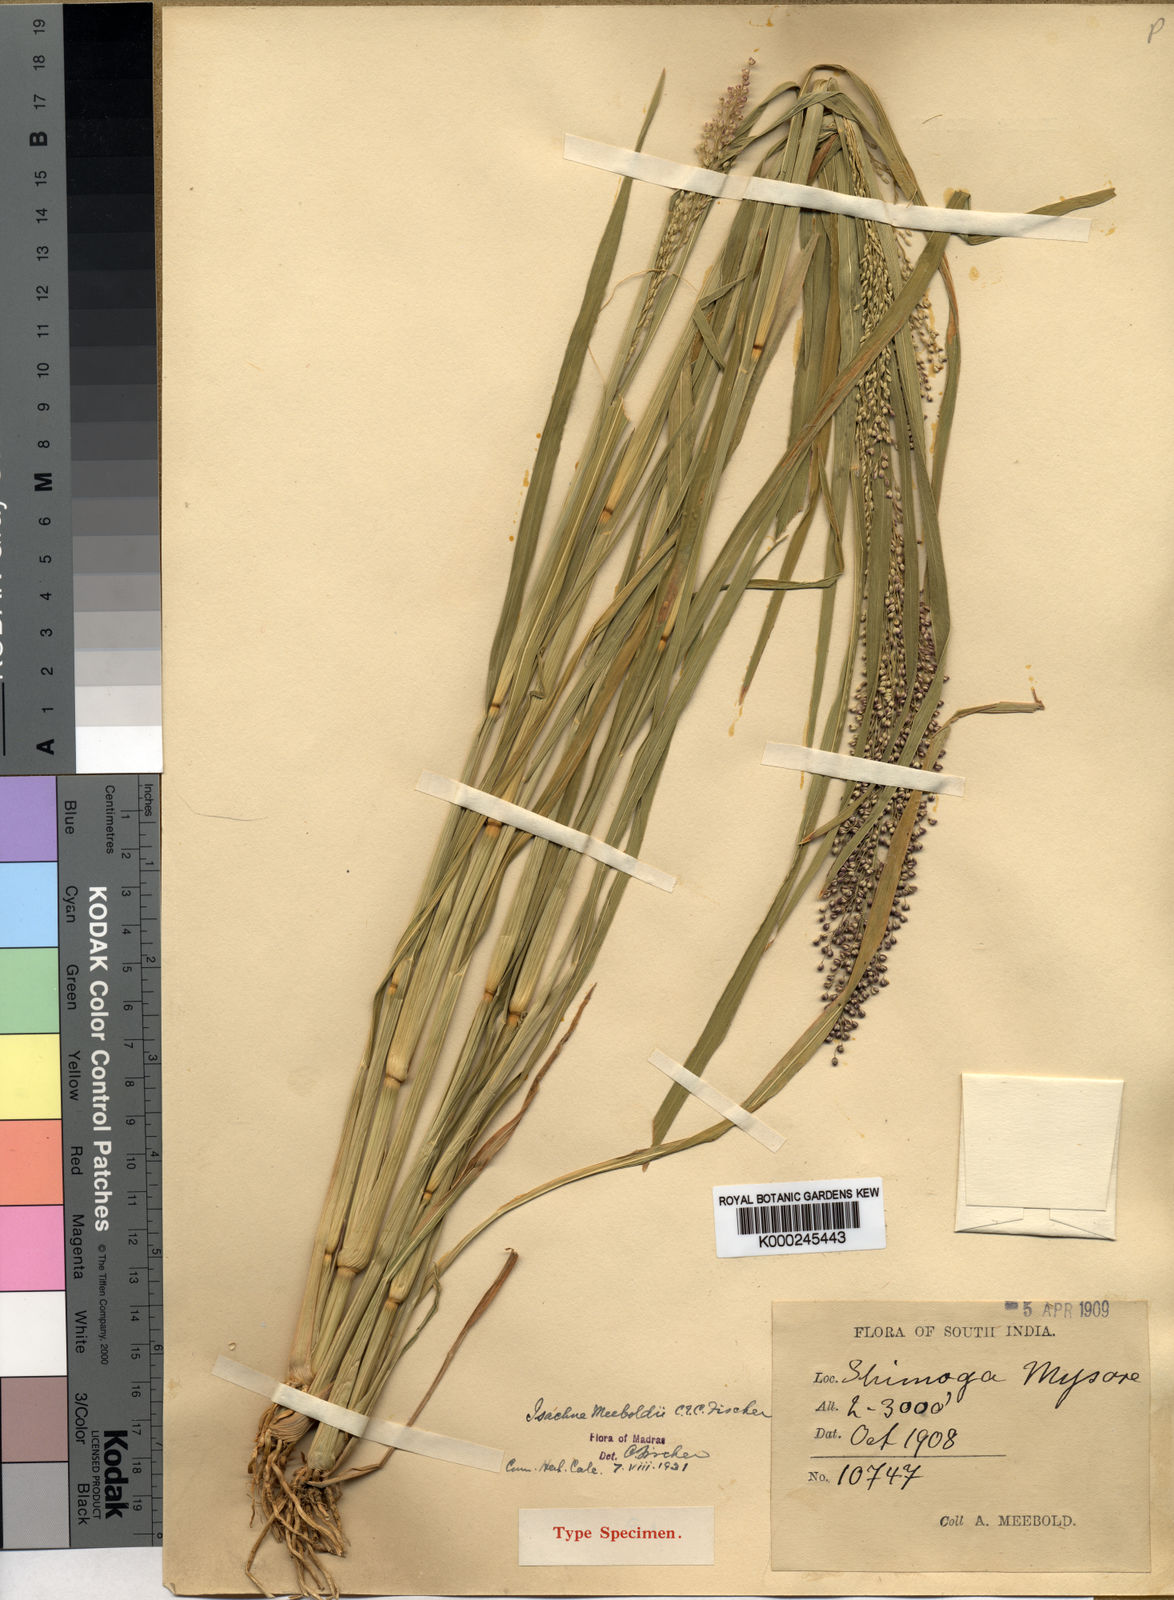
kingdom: Plantae
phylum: Tracheophyta
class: Liliopsida
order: Poales
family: Poaceae
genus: Isachne
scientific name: Isachne meeboldii
